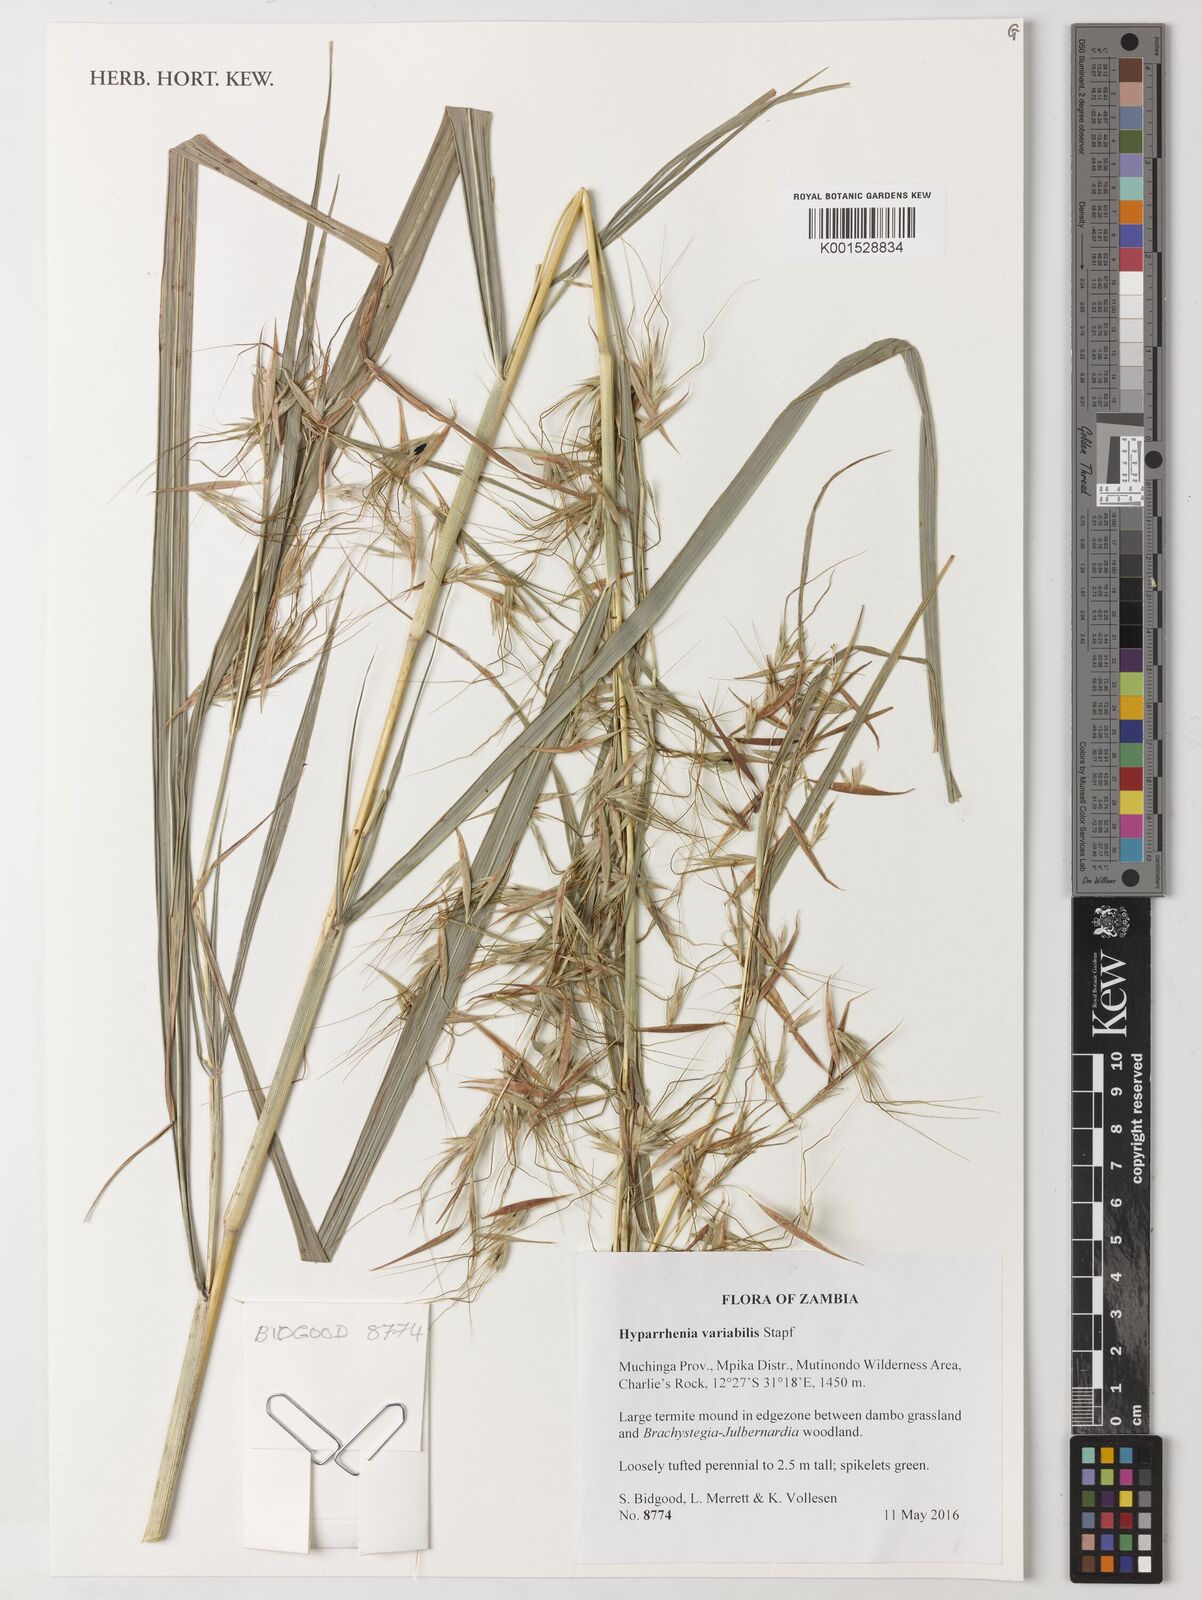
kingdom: Plantae
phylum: Tracheophyta
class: Liliopsida
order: Poales
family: Poaceae
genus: Hyparrhenia
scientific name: Hyparrhenia variabilis
